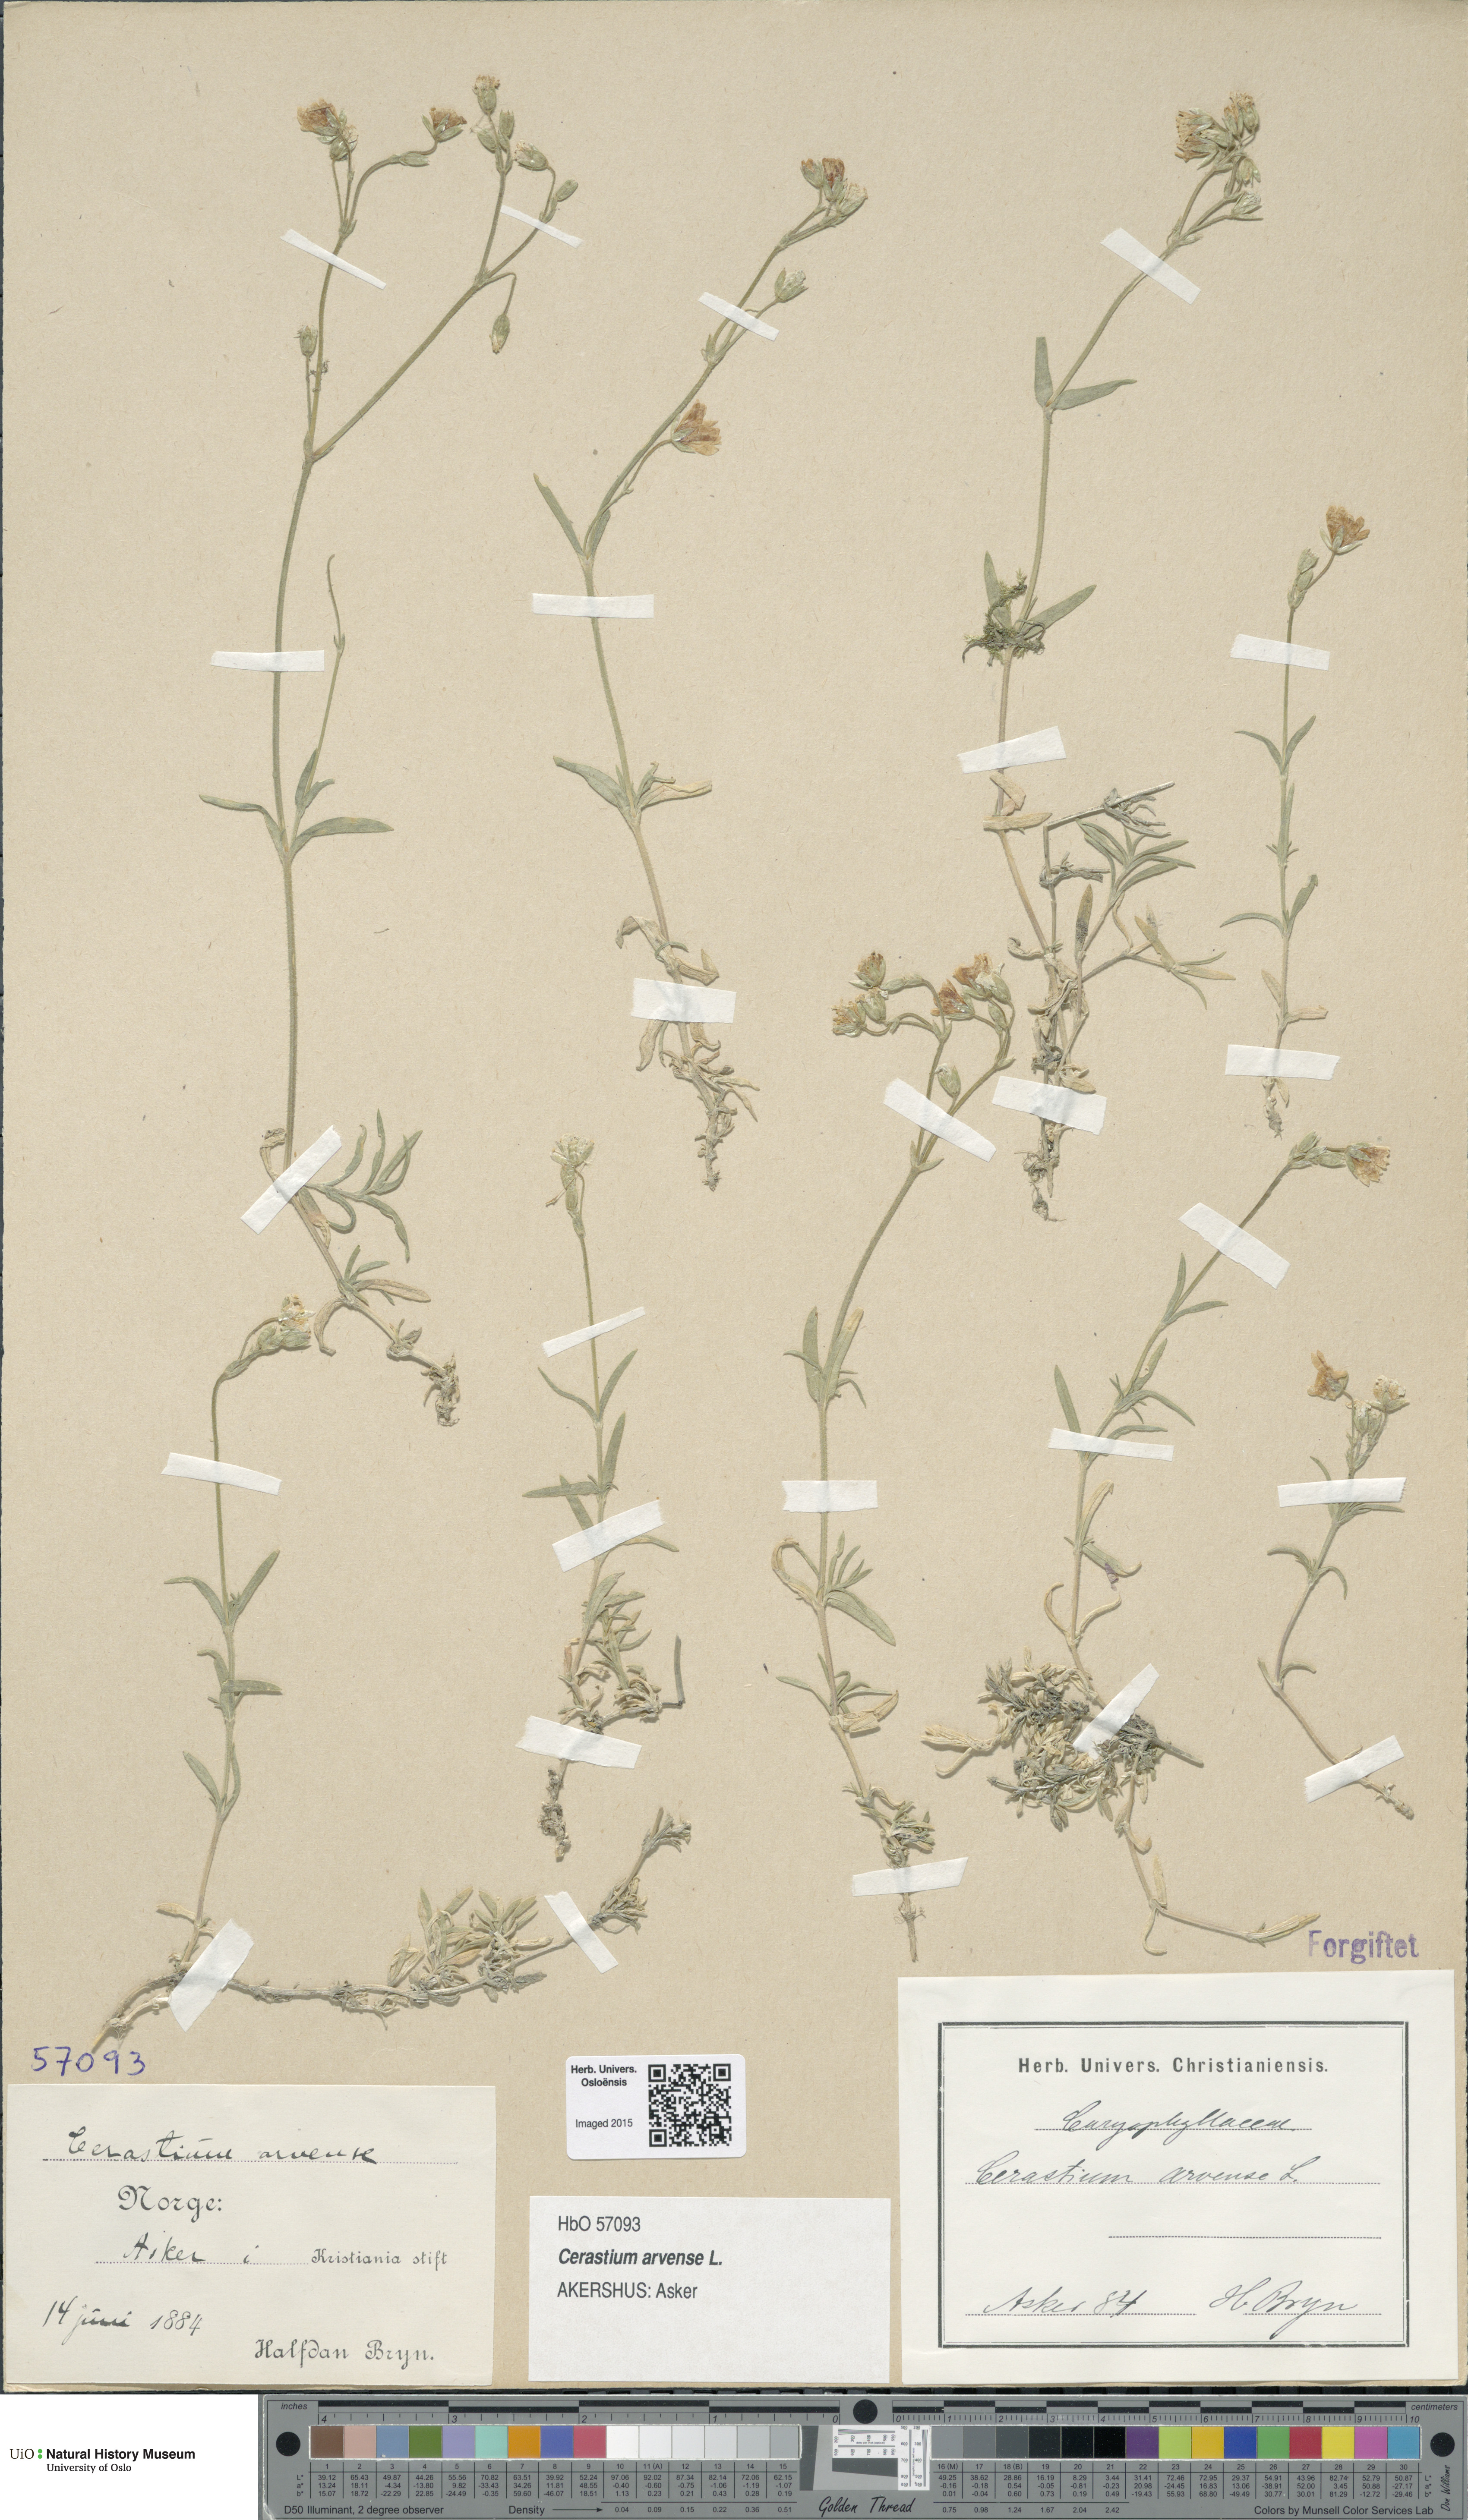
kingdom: Plantae
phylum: Tracheophyta
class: Magnoliopsida
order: Caryophyllales
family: Caryophyllaceae
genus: Cerastium
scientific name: Cerastium arvense
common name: Field mouse-ear
